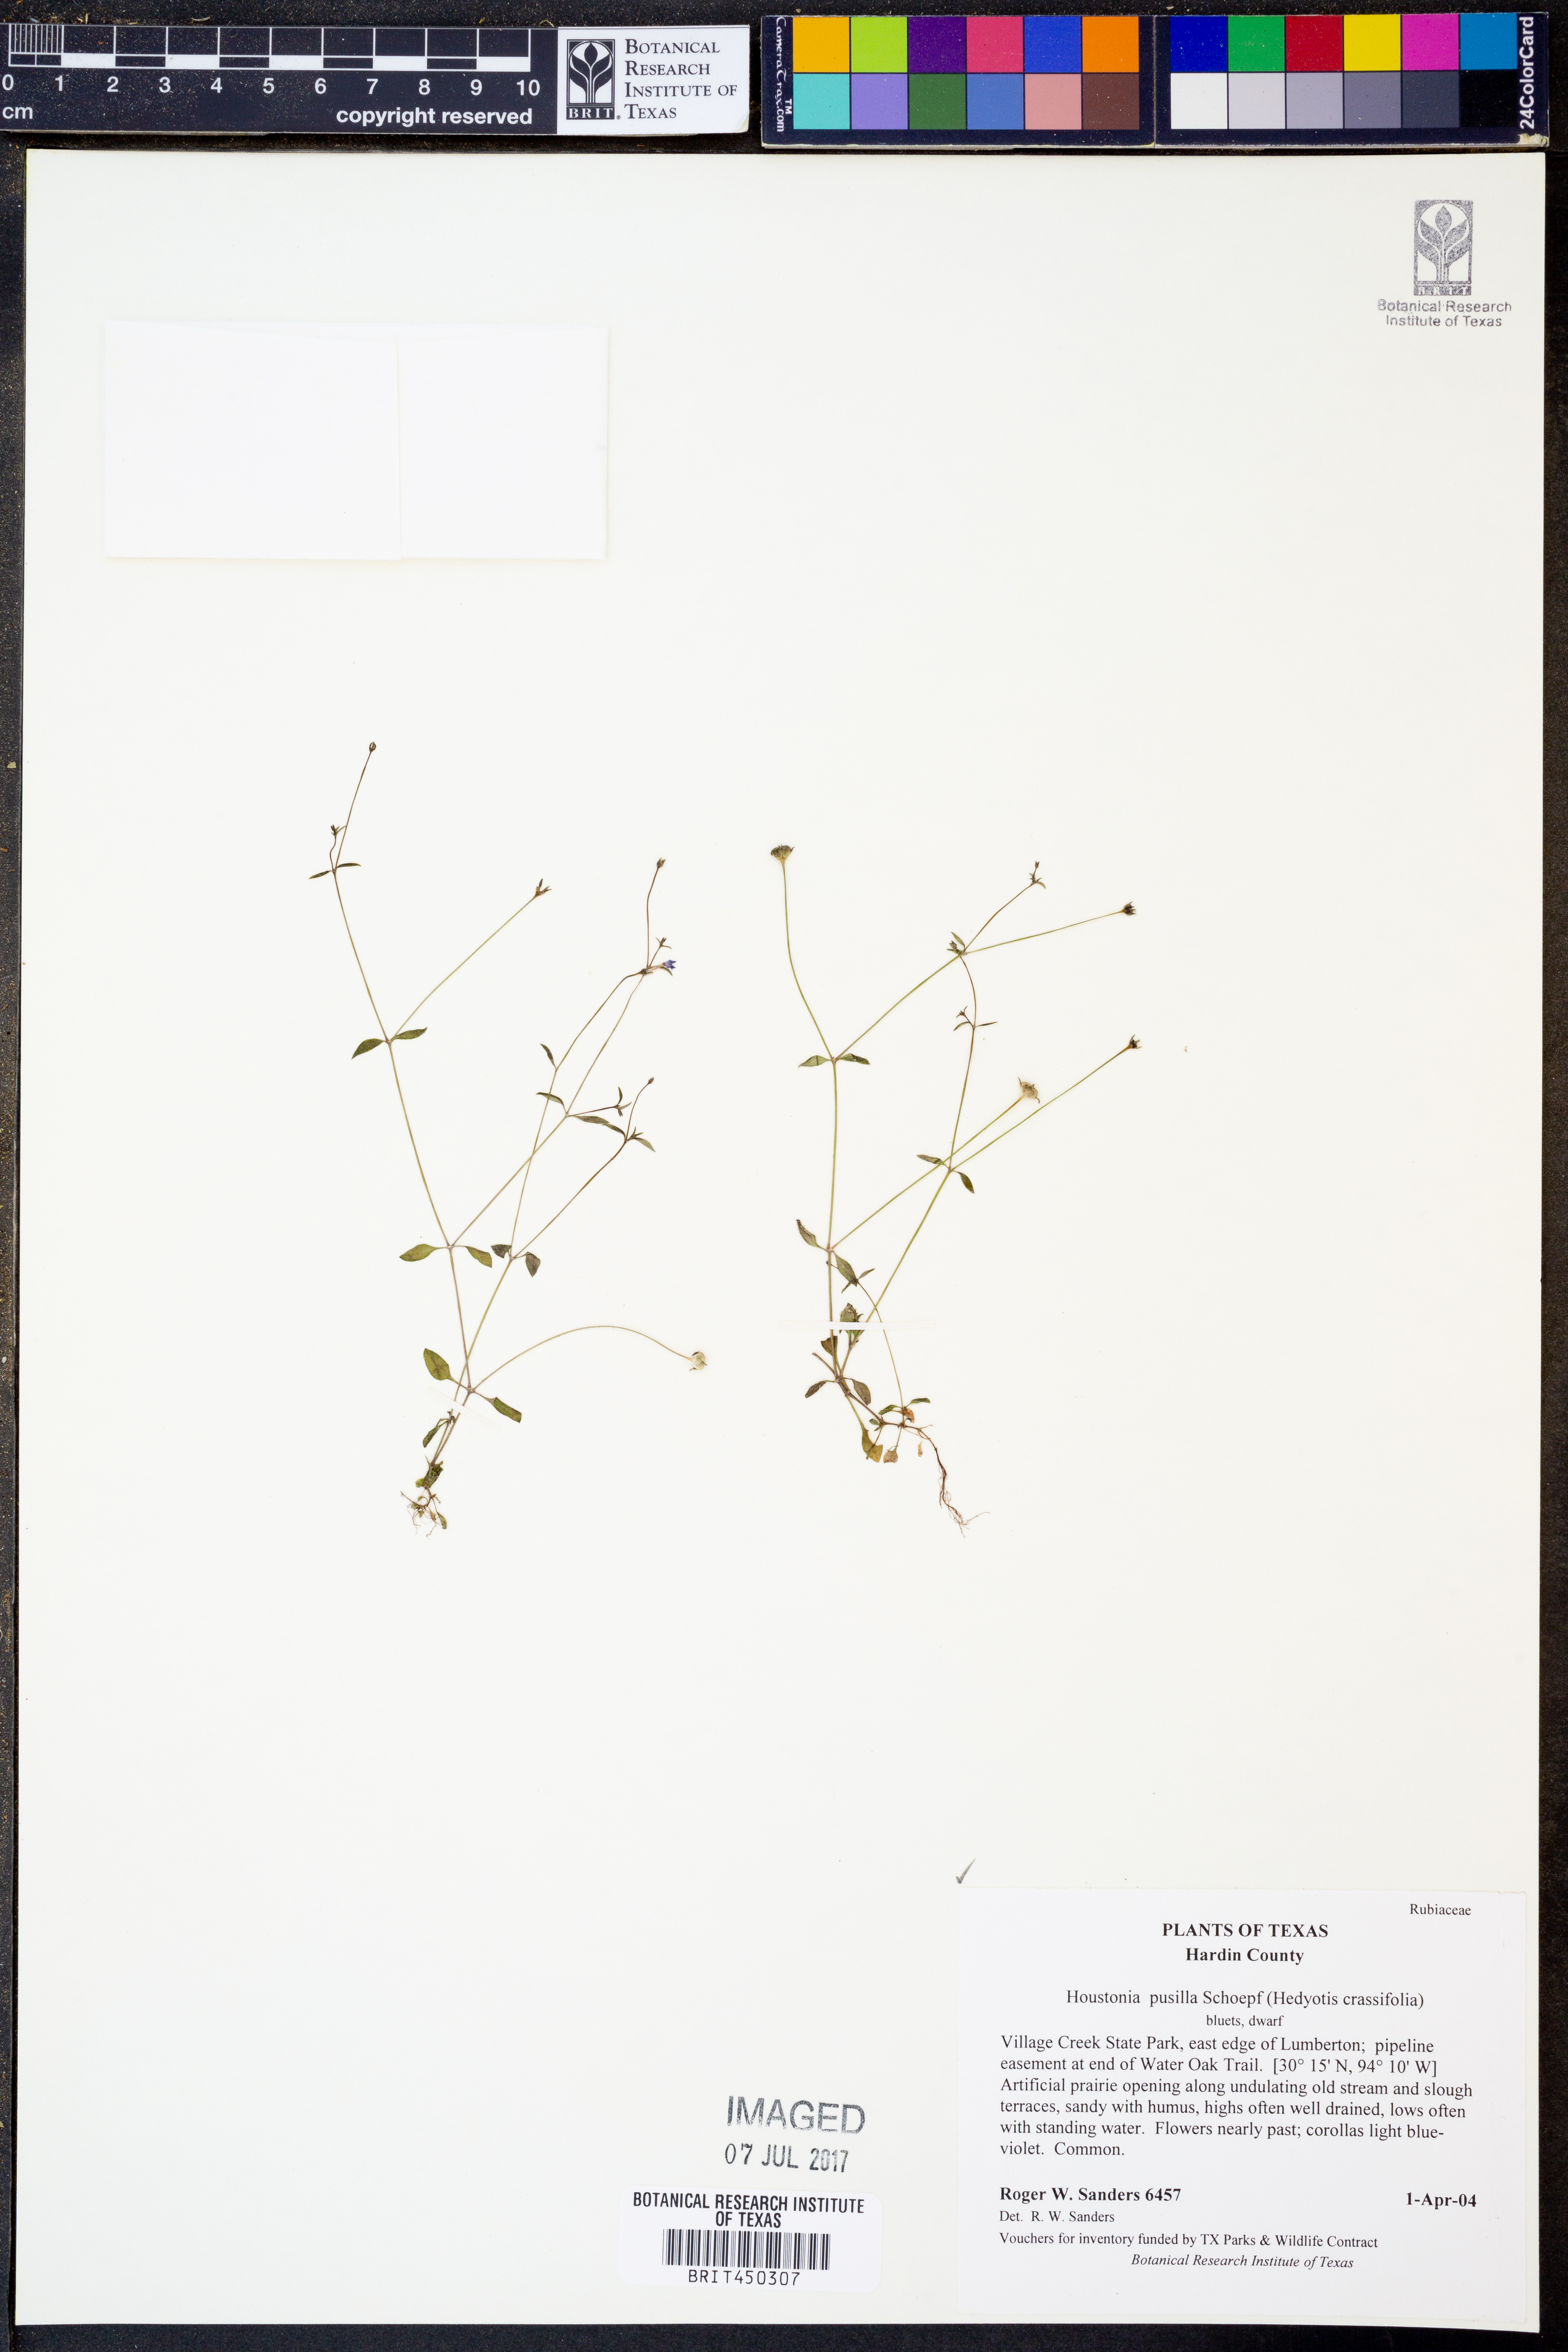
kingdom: Plantae
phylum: Tracheophyta
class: Magnoliopsida
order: Gentianales
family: Rubiaceae
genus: Houstonia
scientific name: Houstonia pusilla
